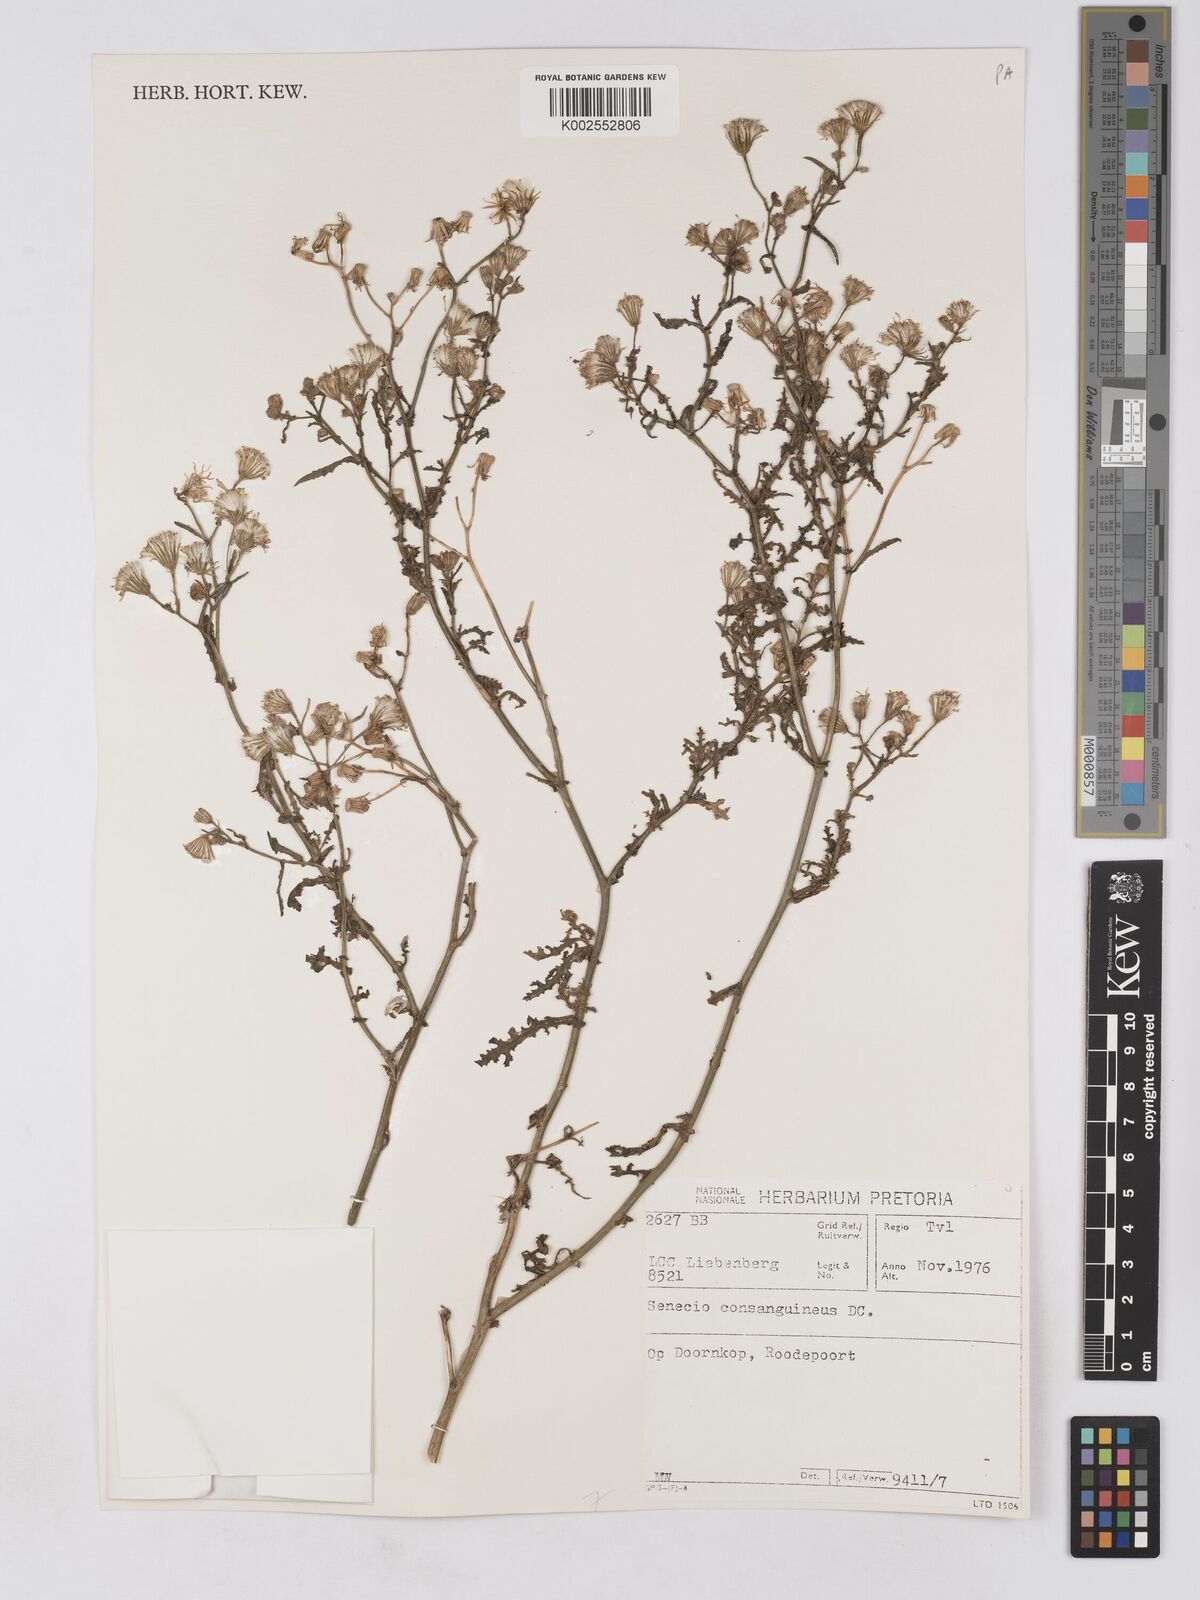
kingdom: Plantae
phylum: Tracheophyta
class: Magnoliopsida
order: Asterales
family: Asteraceae
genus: Senecio
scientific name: Senecio consanguineus
